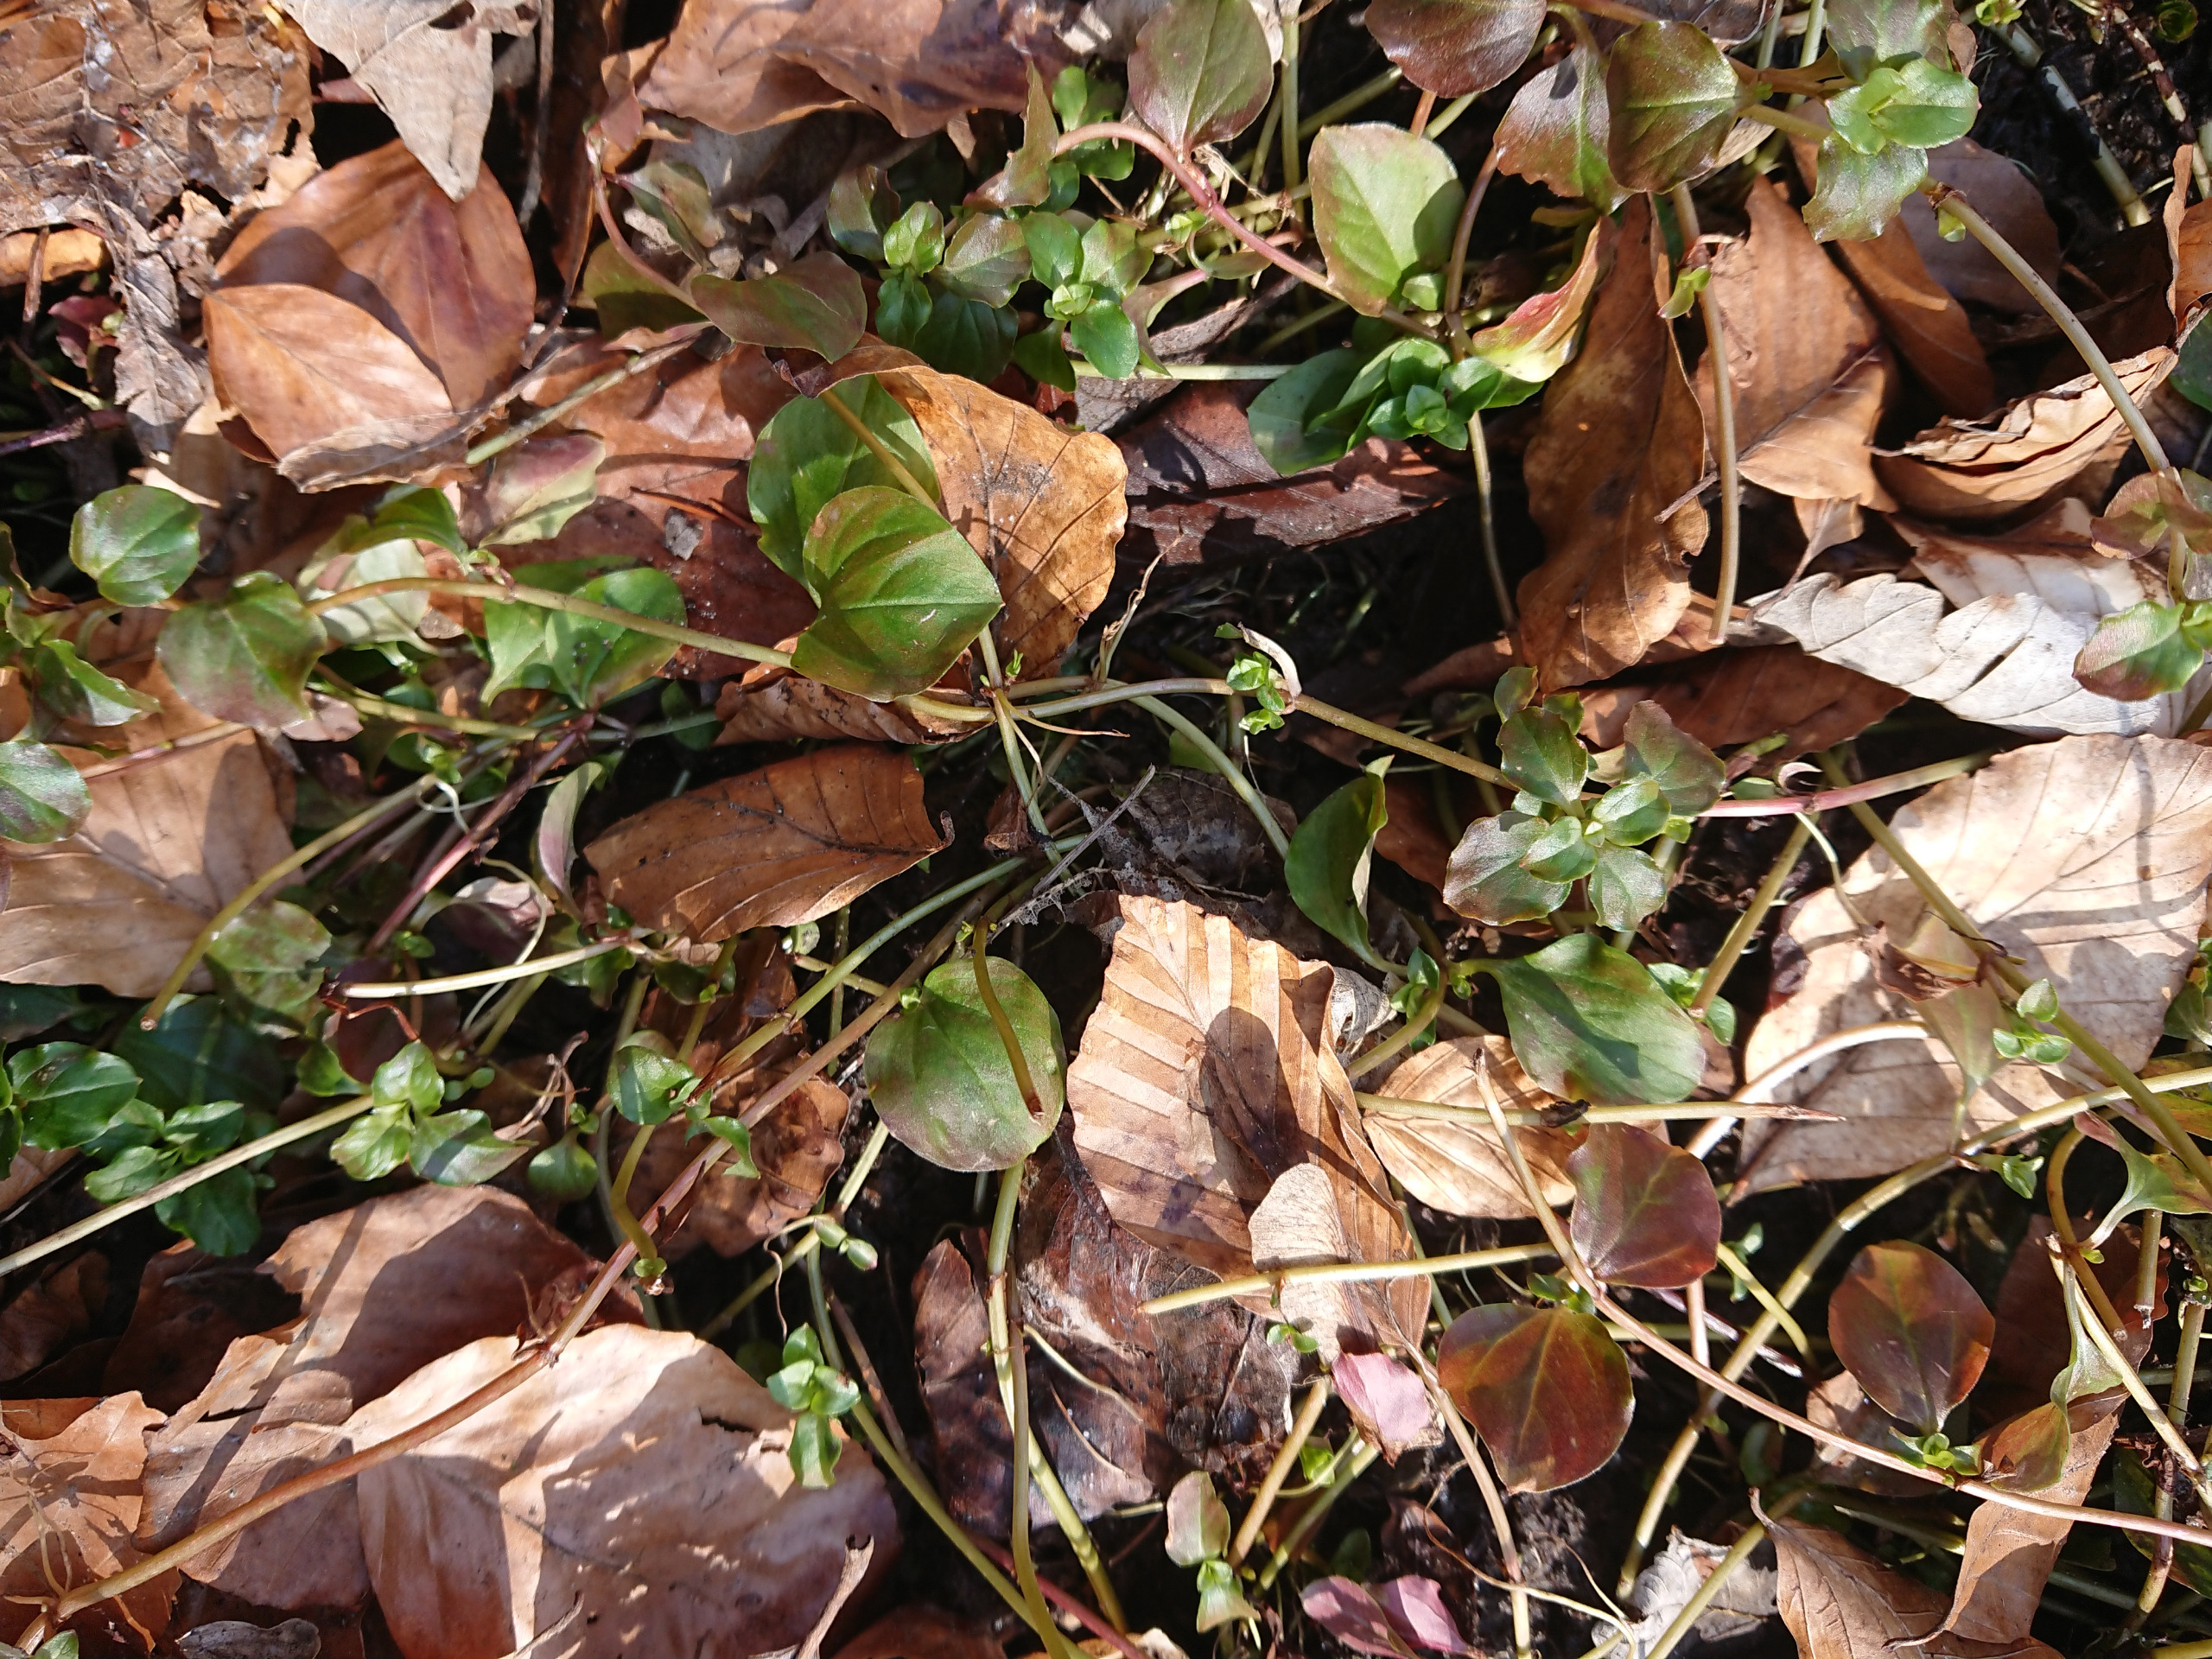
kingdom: Plantae
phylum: Tracheophyta
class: Magnoliopsida
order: Ericales
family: Primulaceae
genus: Lysimachia
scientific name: Lysimachia nemorum
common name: Lund-fredløs
